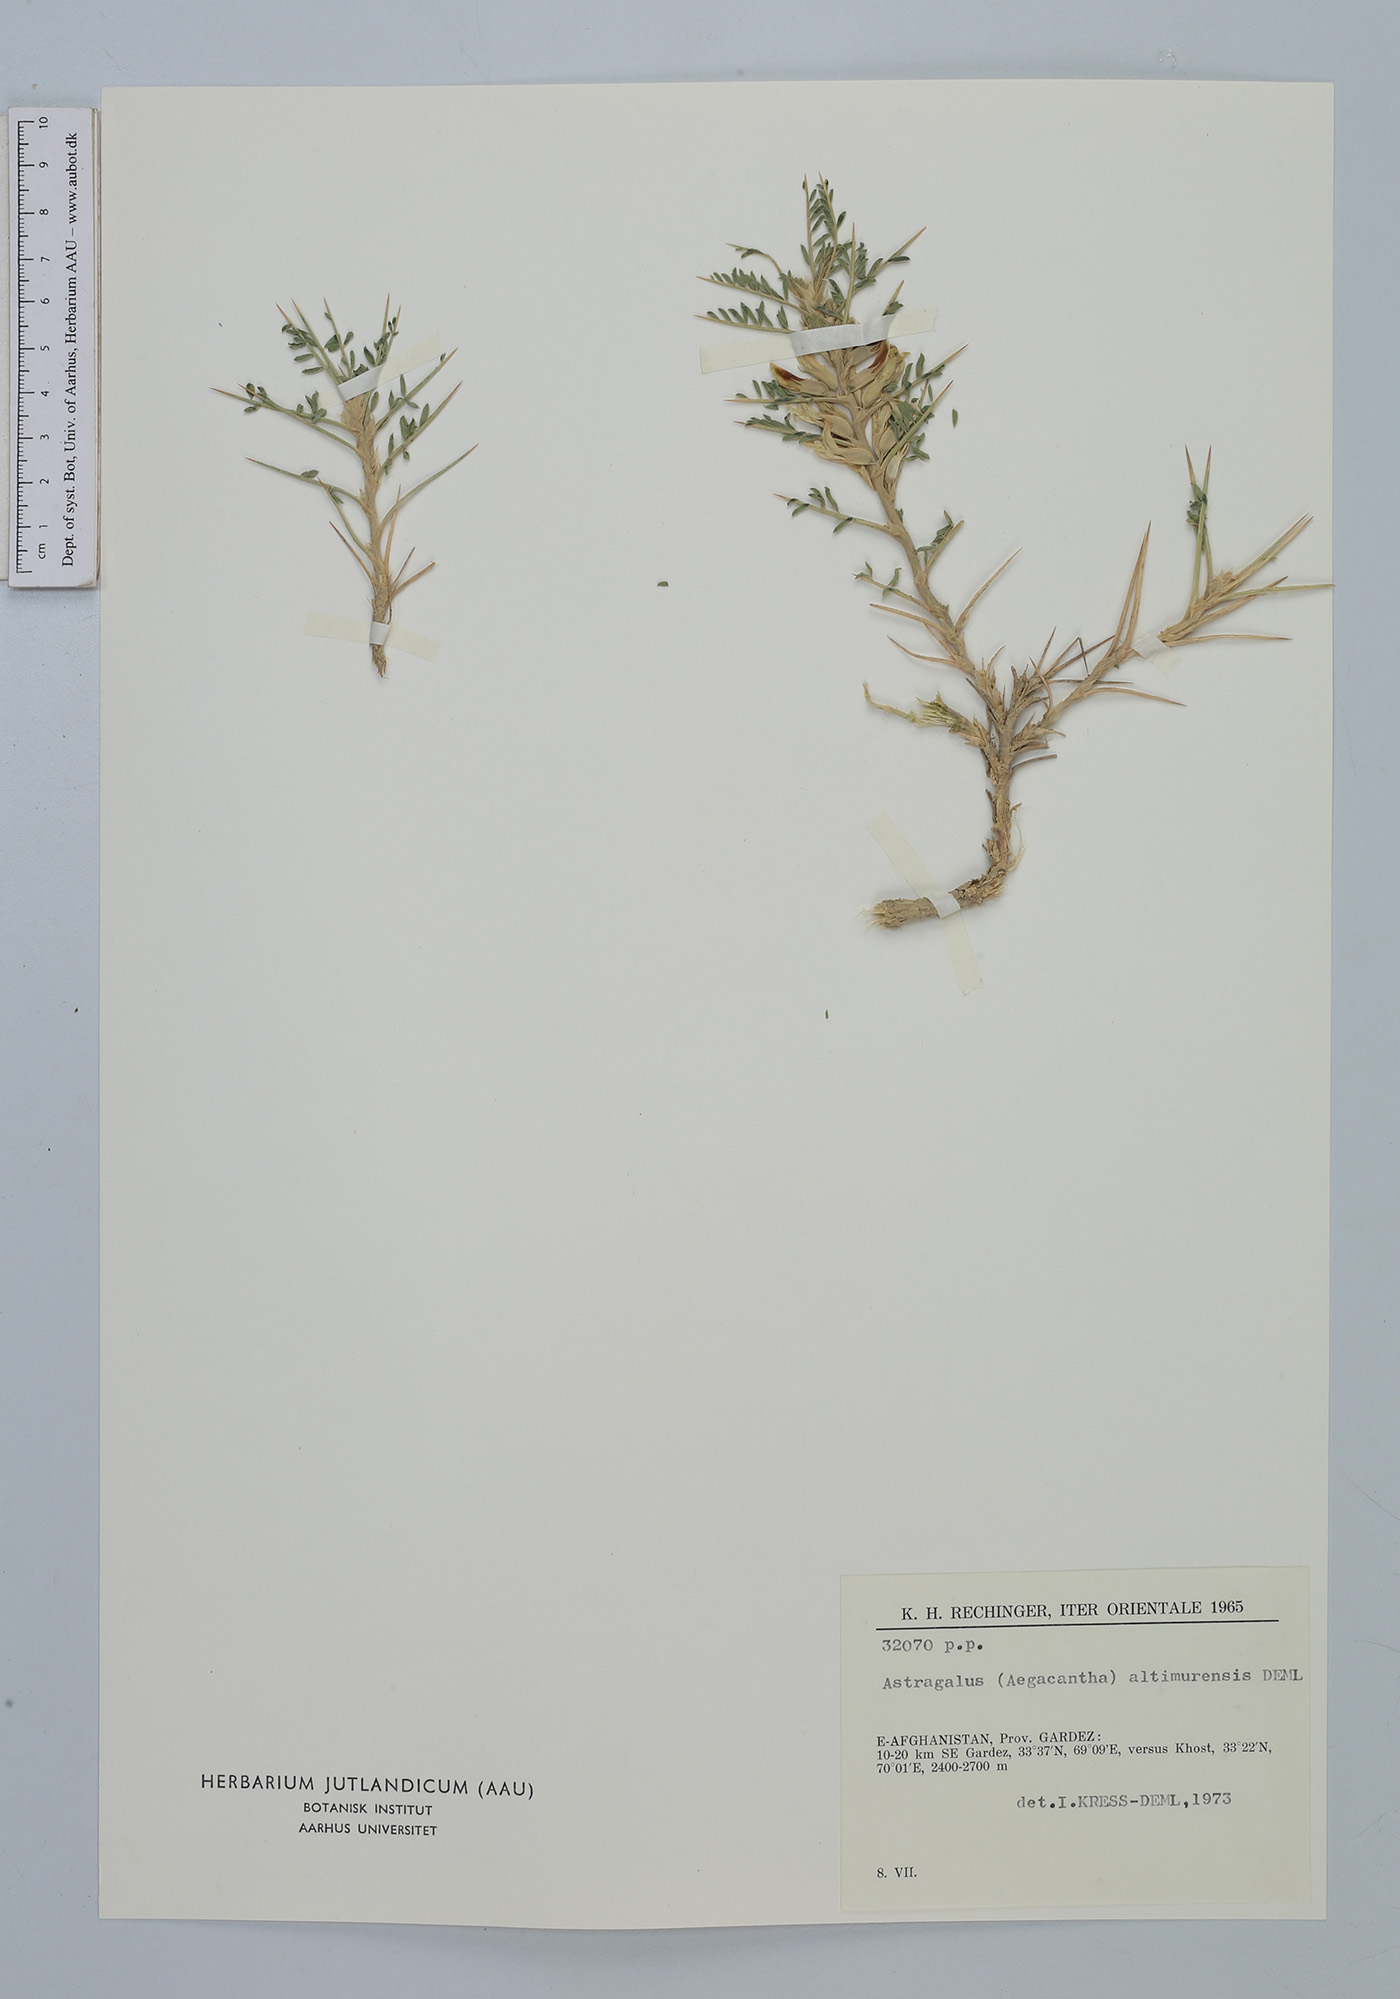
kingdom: Plantae
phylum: Tracheophyta
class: Magnoliopsida
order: Fabales
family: Fabaceae
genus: Astragalus
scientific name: Astragalus altimurensis
